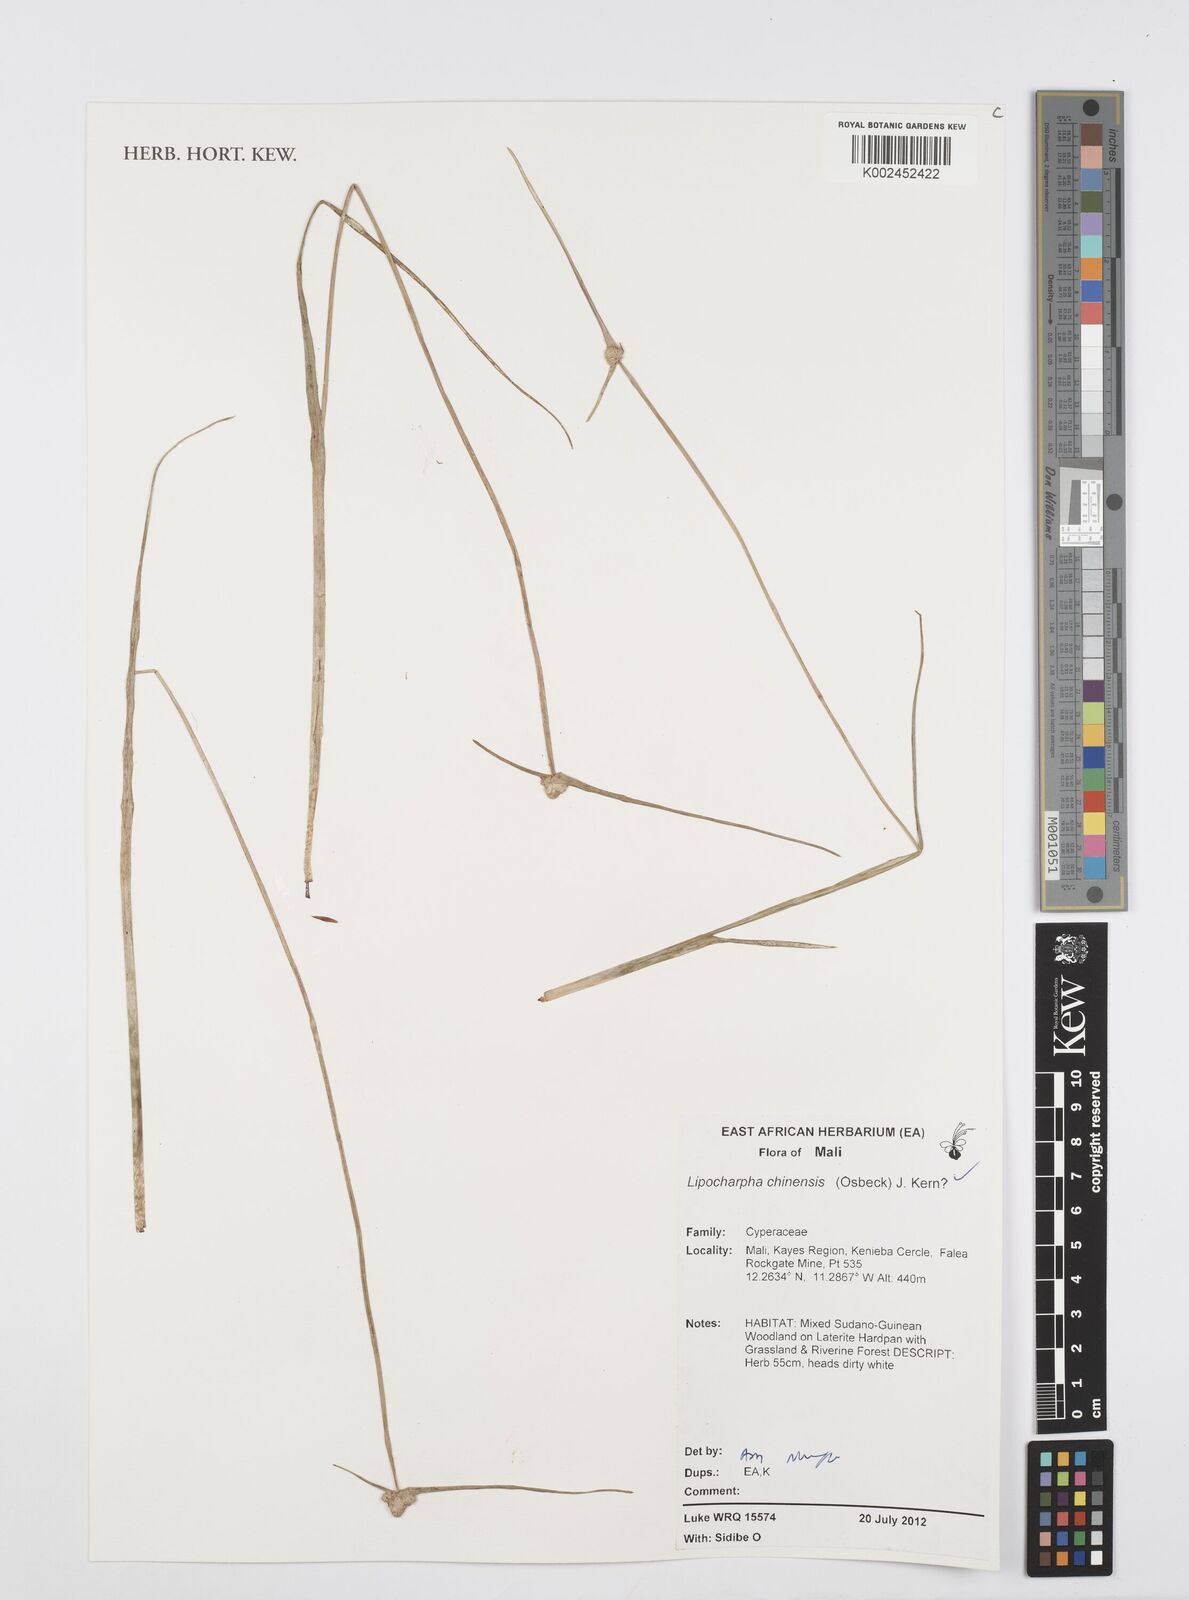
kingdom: Plantae
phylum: Tracheophyta
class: Liliopsida
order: Poales
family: Cyperaceae
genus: Cyperus
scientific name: Cyperus albescens
